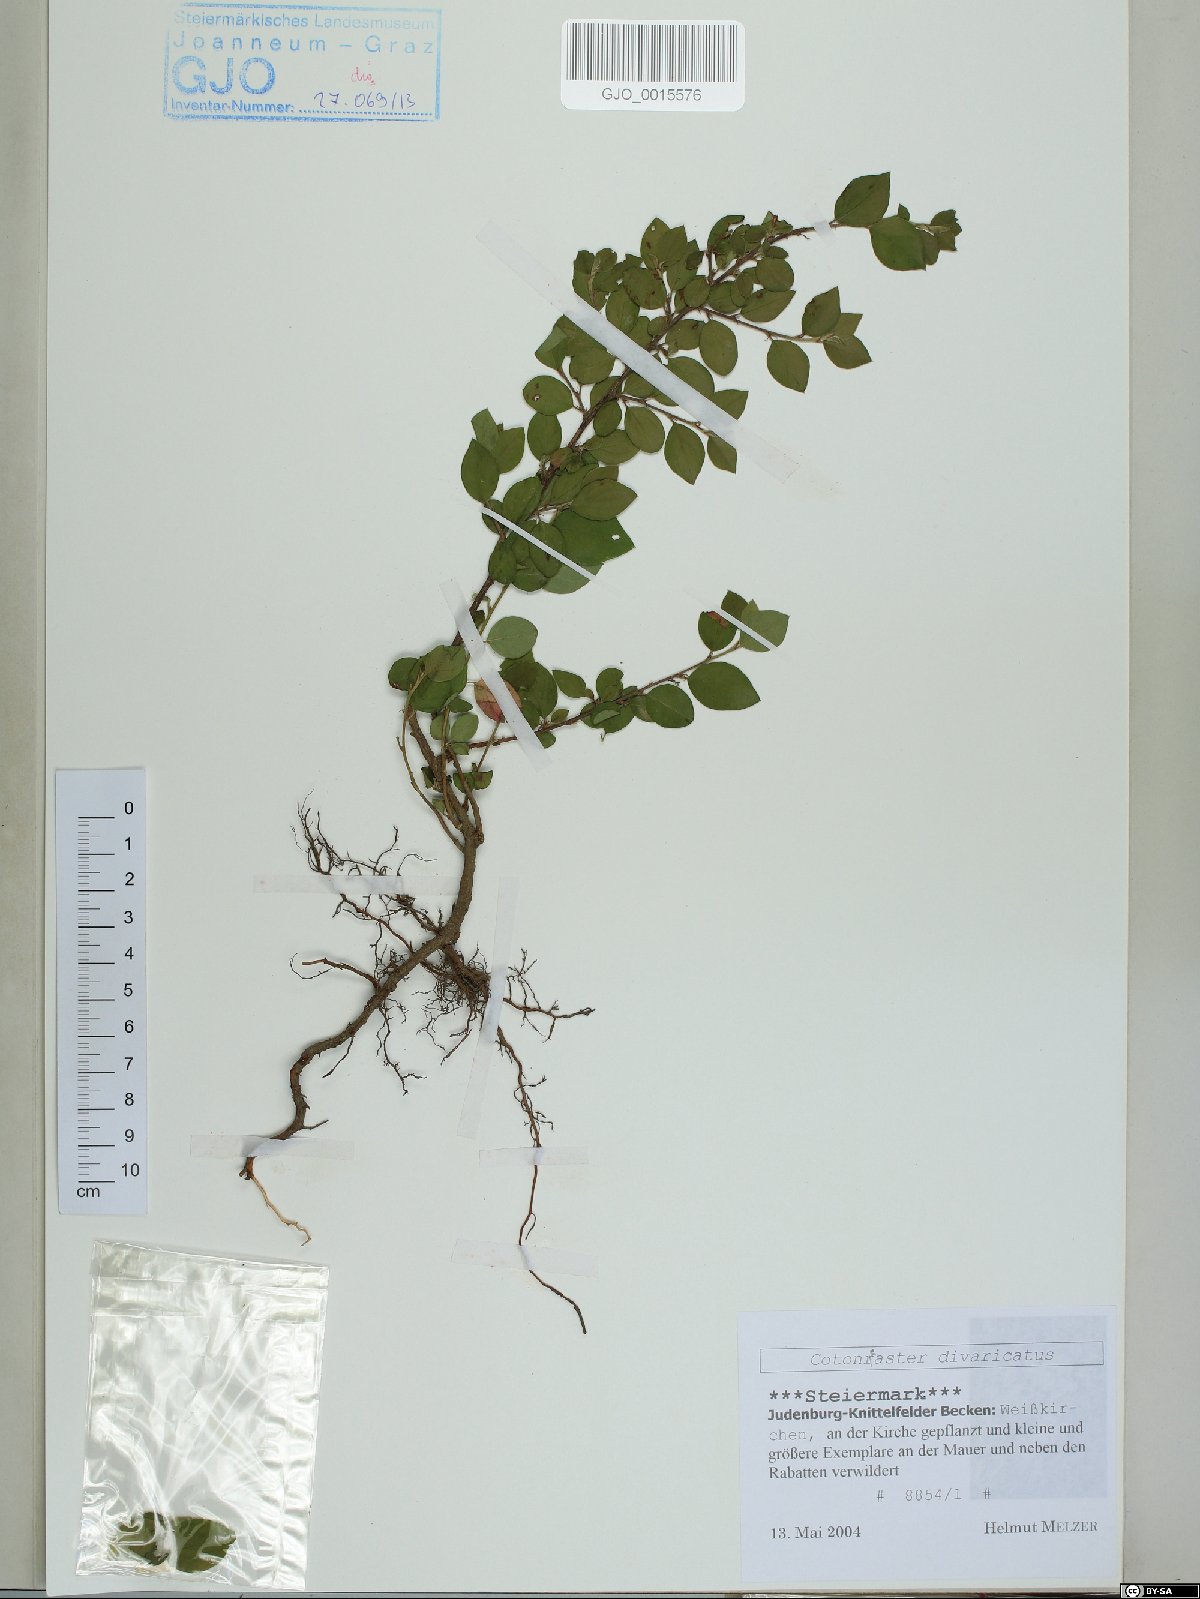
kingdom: Plantae
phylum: Tracheophyta
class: Magnoliopsida
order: Rosales
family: Rosaceae
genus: Cotoneaster
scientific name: Cotoneaster divaricatus
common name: Spreading cotoneaster
